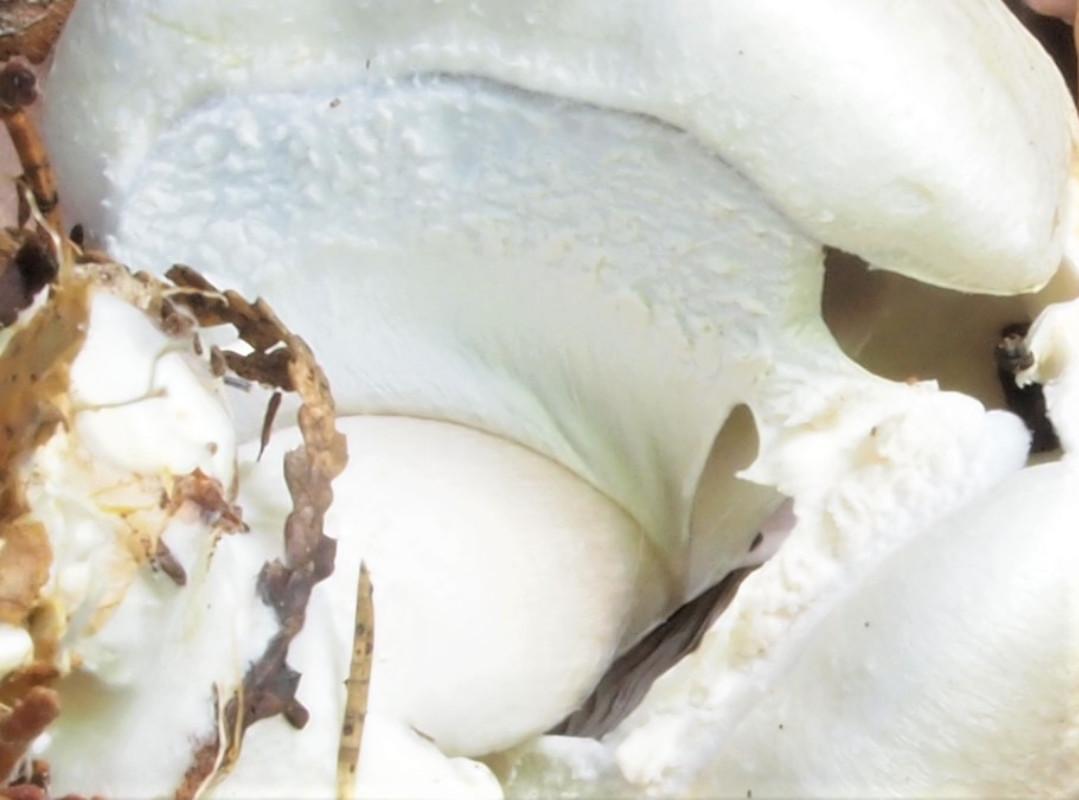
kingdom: Fungi
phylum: Basidiomycota
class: Agaricomycetes
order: Agaricales
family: Agaricaceae
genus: Agaricus
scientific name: Agaricus sylvicola
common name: gulhvid champignon
